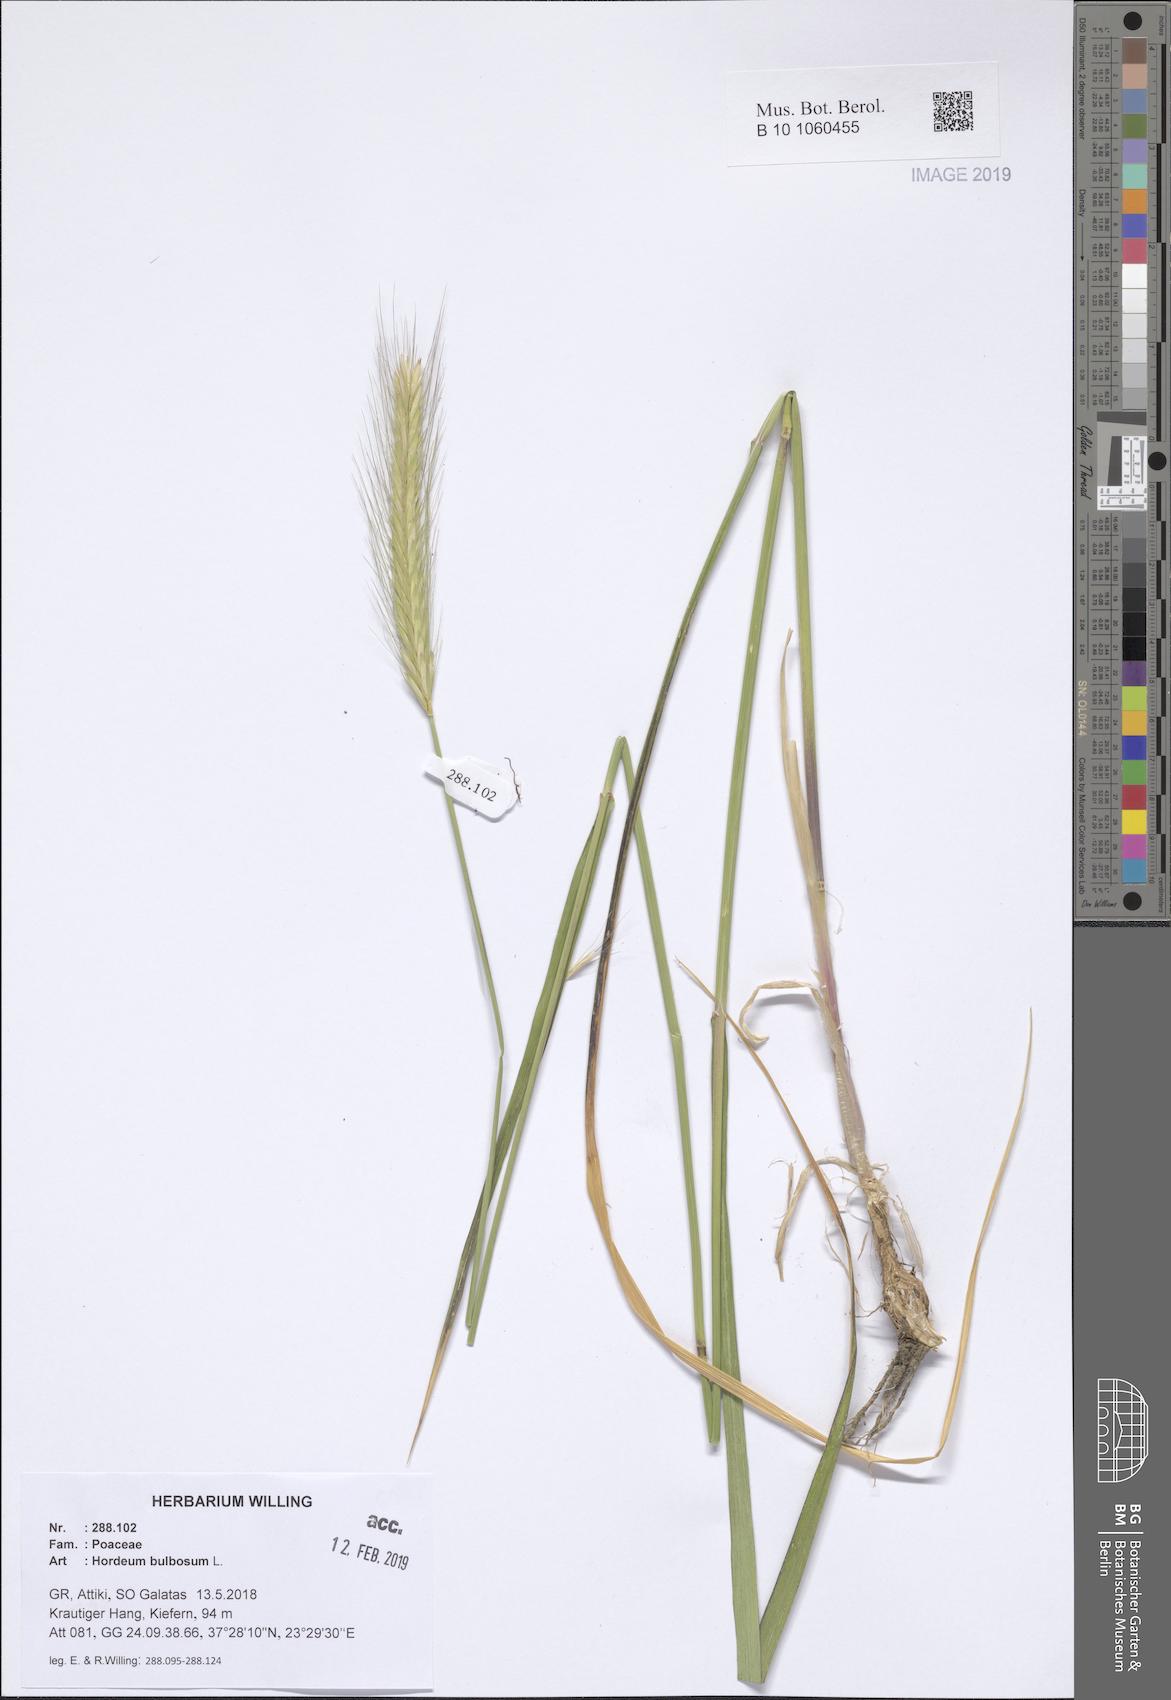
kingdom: Plantae
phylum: Tracheophyta
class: Liliopsida
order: Poales
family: Poaceae
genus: Hordeum
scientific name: Hordeum bulbosum
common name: Bulbous barley
